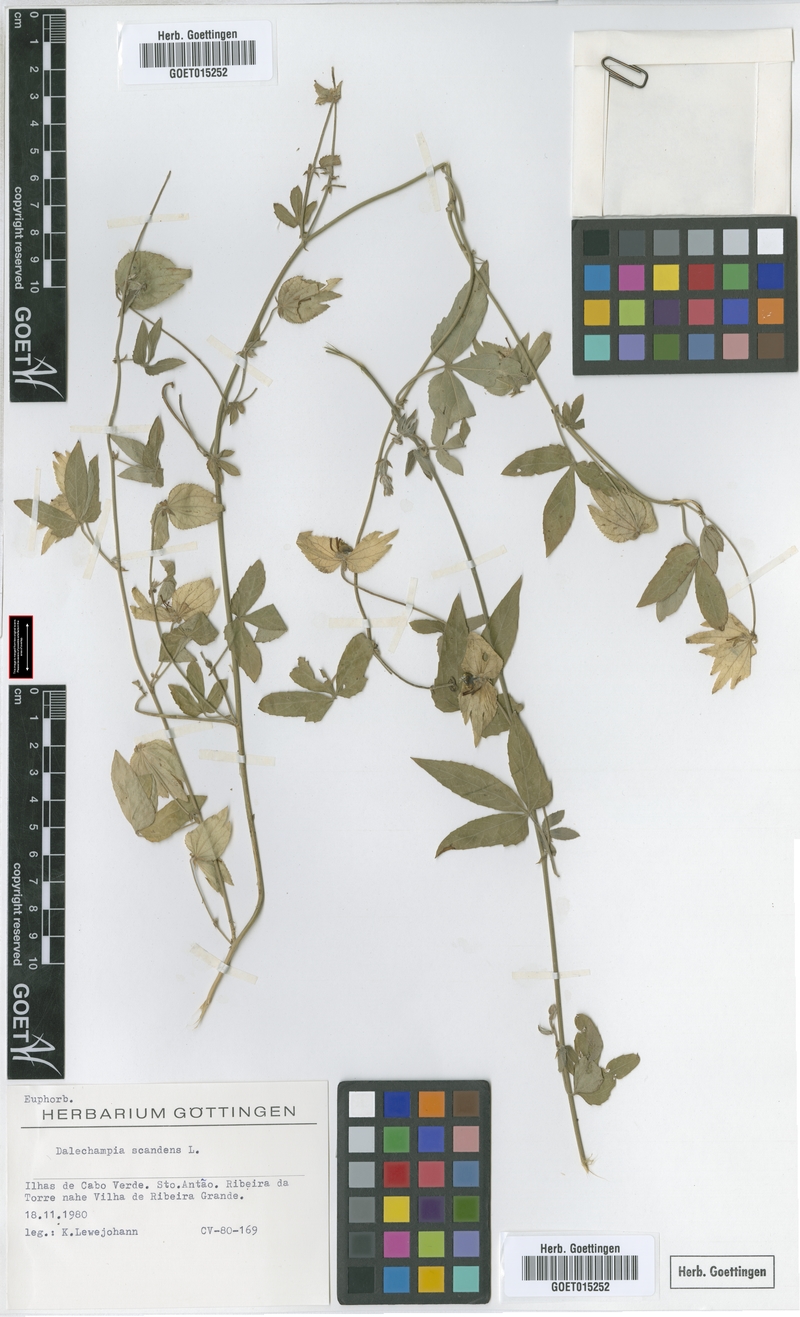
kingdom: Plantae
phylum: Tracheophyta
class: Magnoliopsida
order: Malpighiales
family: Euphorbiaceae
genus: Dalechampia
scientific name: Dalechampia scandens
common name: Spurgecreeper
